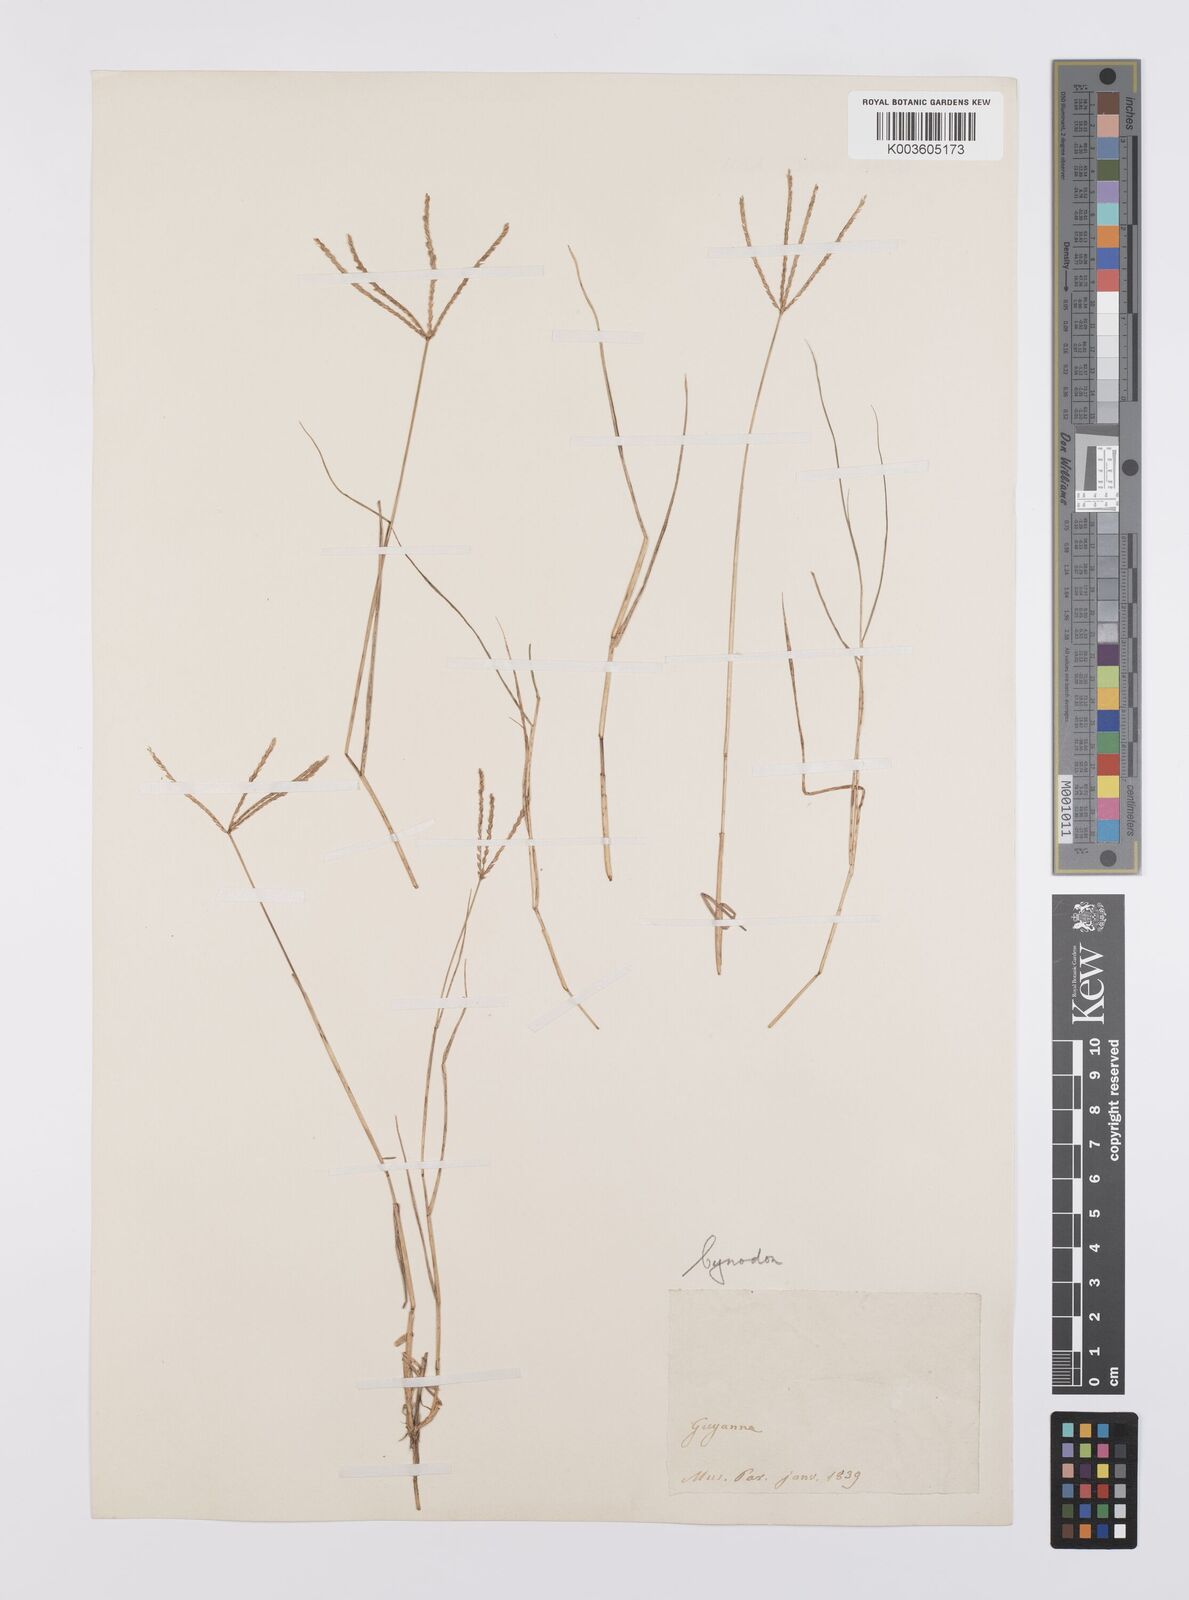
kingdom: Plantae
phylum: Tracheophyta
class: Liliopsida
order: Poales
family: Poaceae
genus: Cynodon
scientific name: Cynodon dactylon
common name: Bermuda grass
